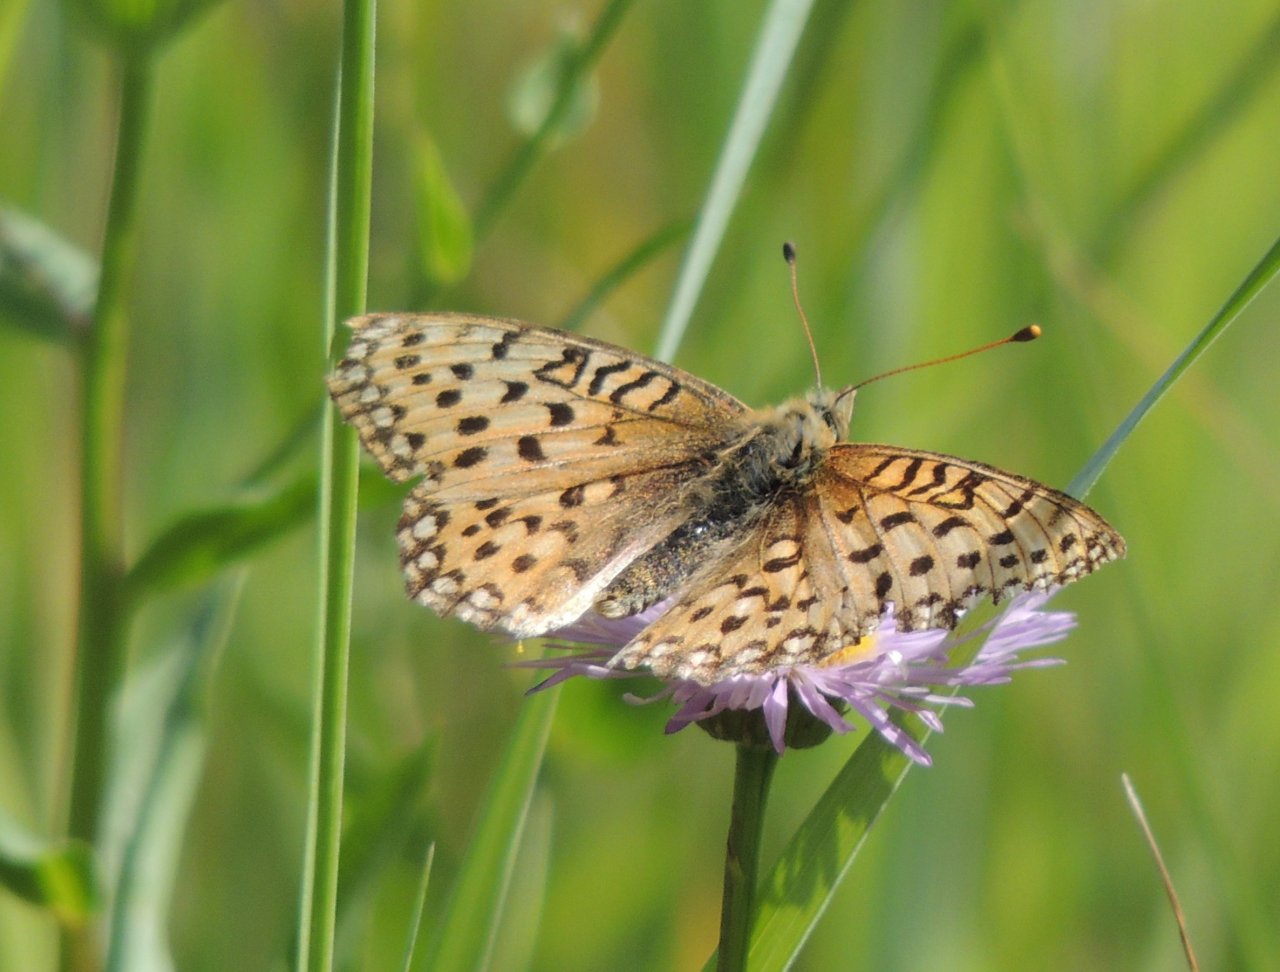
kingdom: Animalia
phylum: Arthropoda
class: Insecta
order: Lepidoptera
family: Nymphalidae
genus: Speyeria
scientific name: Speyeria callippe
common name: Callippe Fritillary
